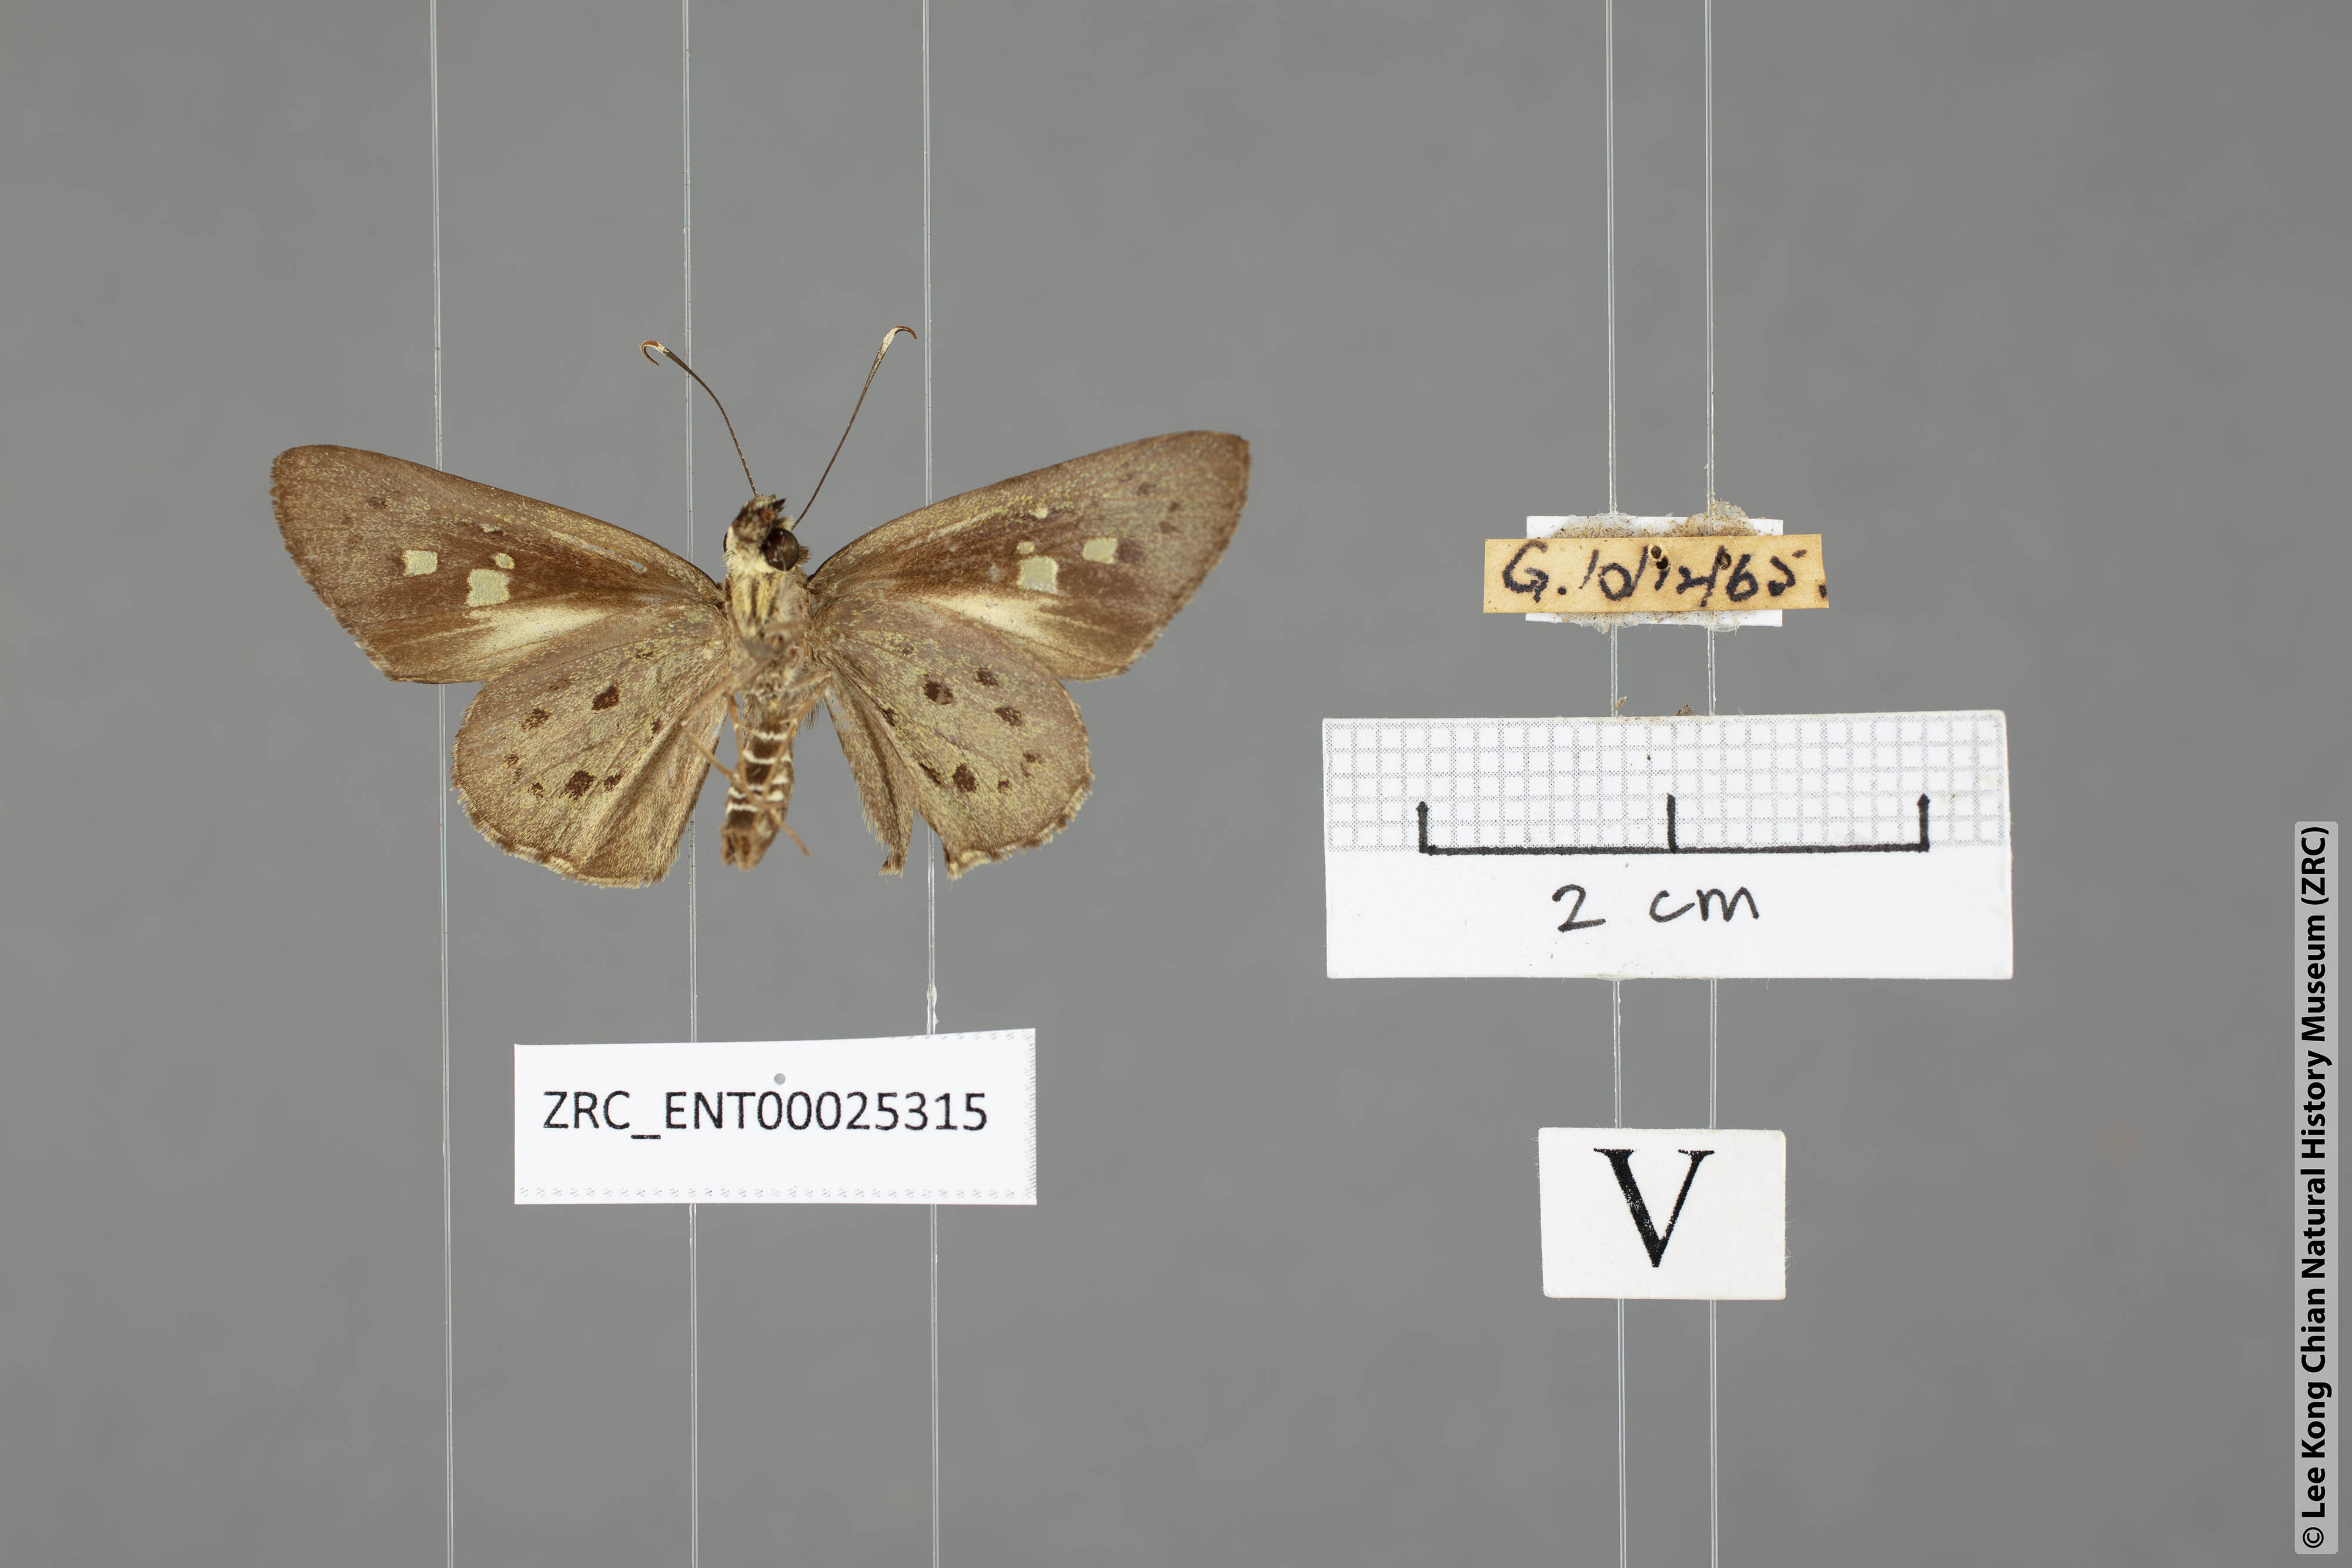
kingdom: Animalia
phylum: Arthropoda
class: Insecta
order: Lepidoptera
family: Hesperiidae
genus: Salanoemia
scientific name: Salanoemia sala
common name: Maculate lancer
